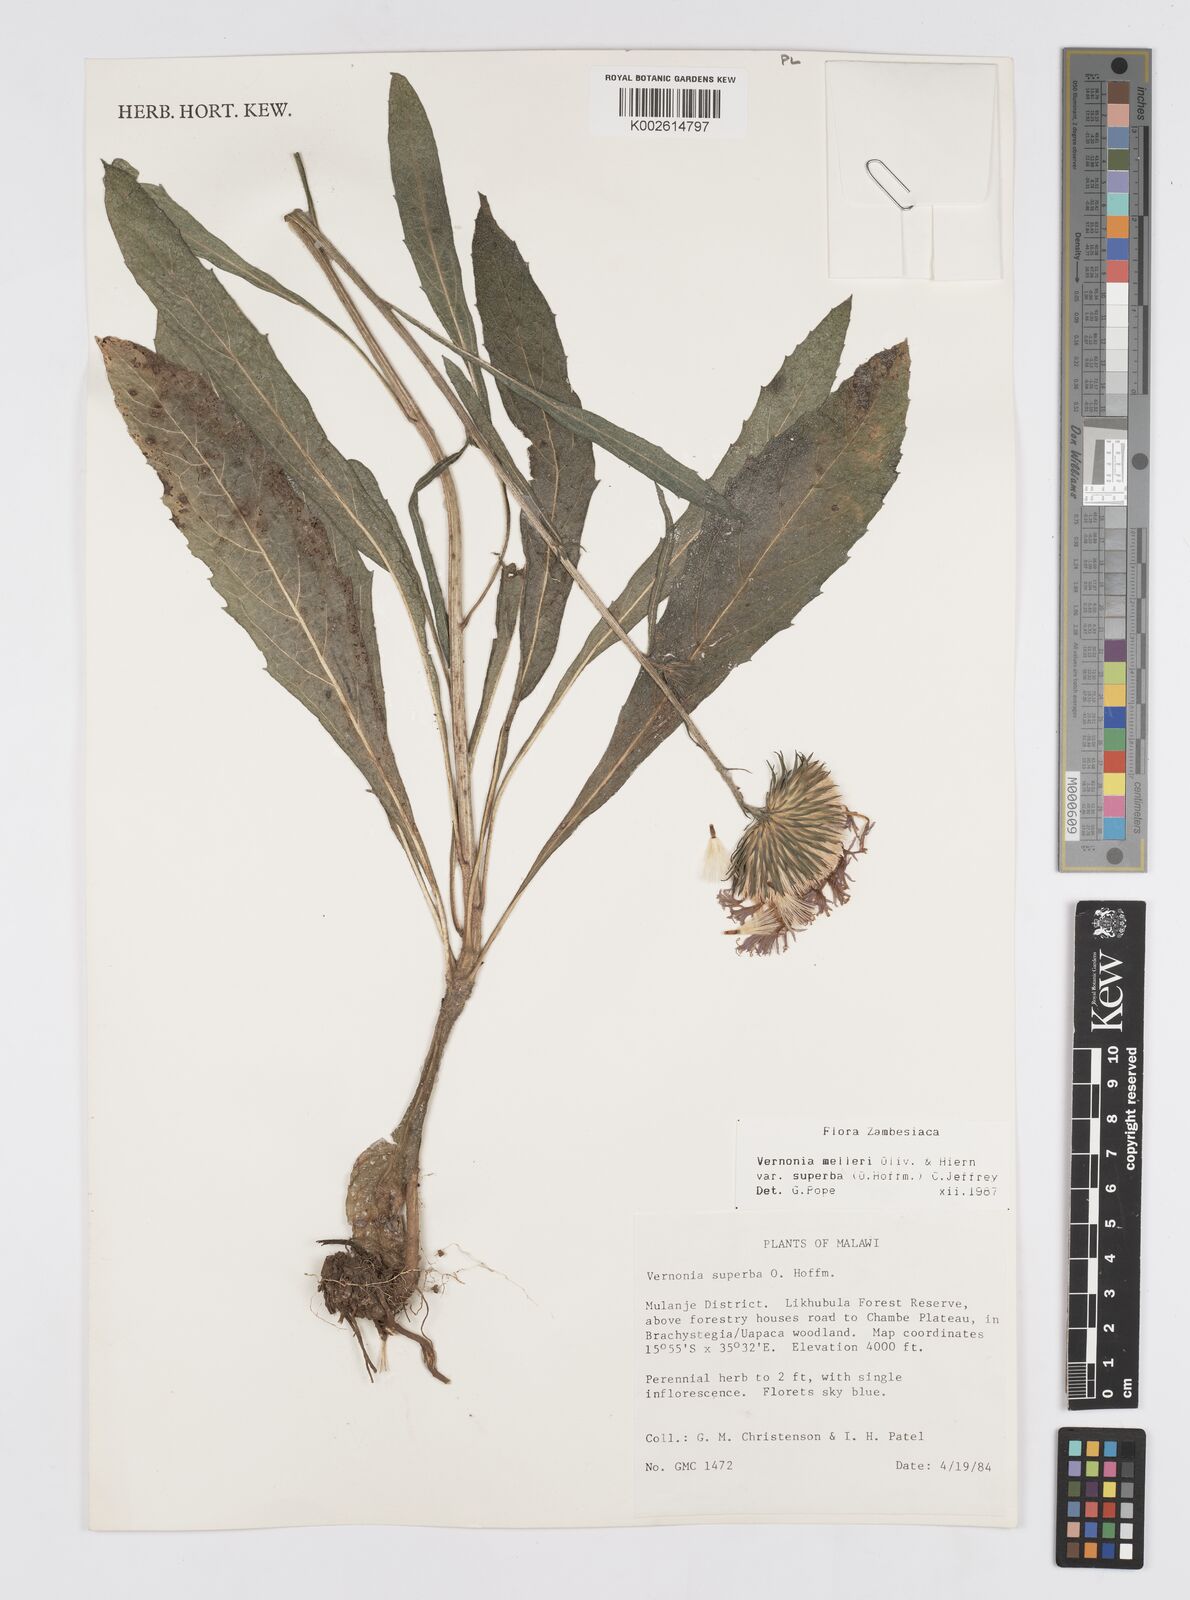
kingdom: Plantae
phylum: Tracheophyta
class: Magnoliopsida
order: Asterales
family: Asteraceae
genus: Linzia
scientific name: Linzia melleri
